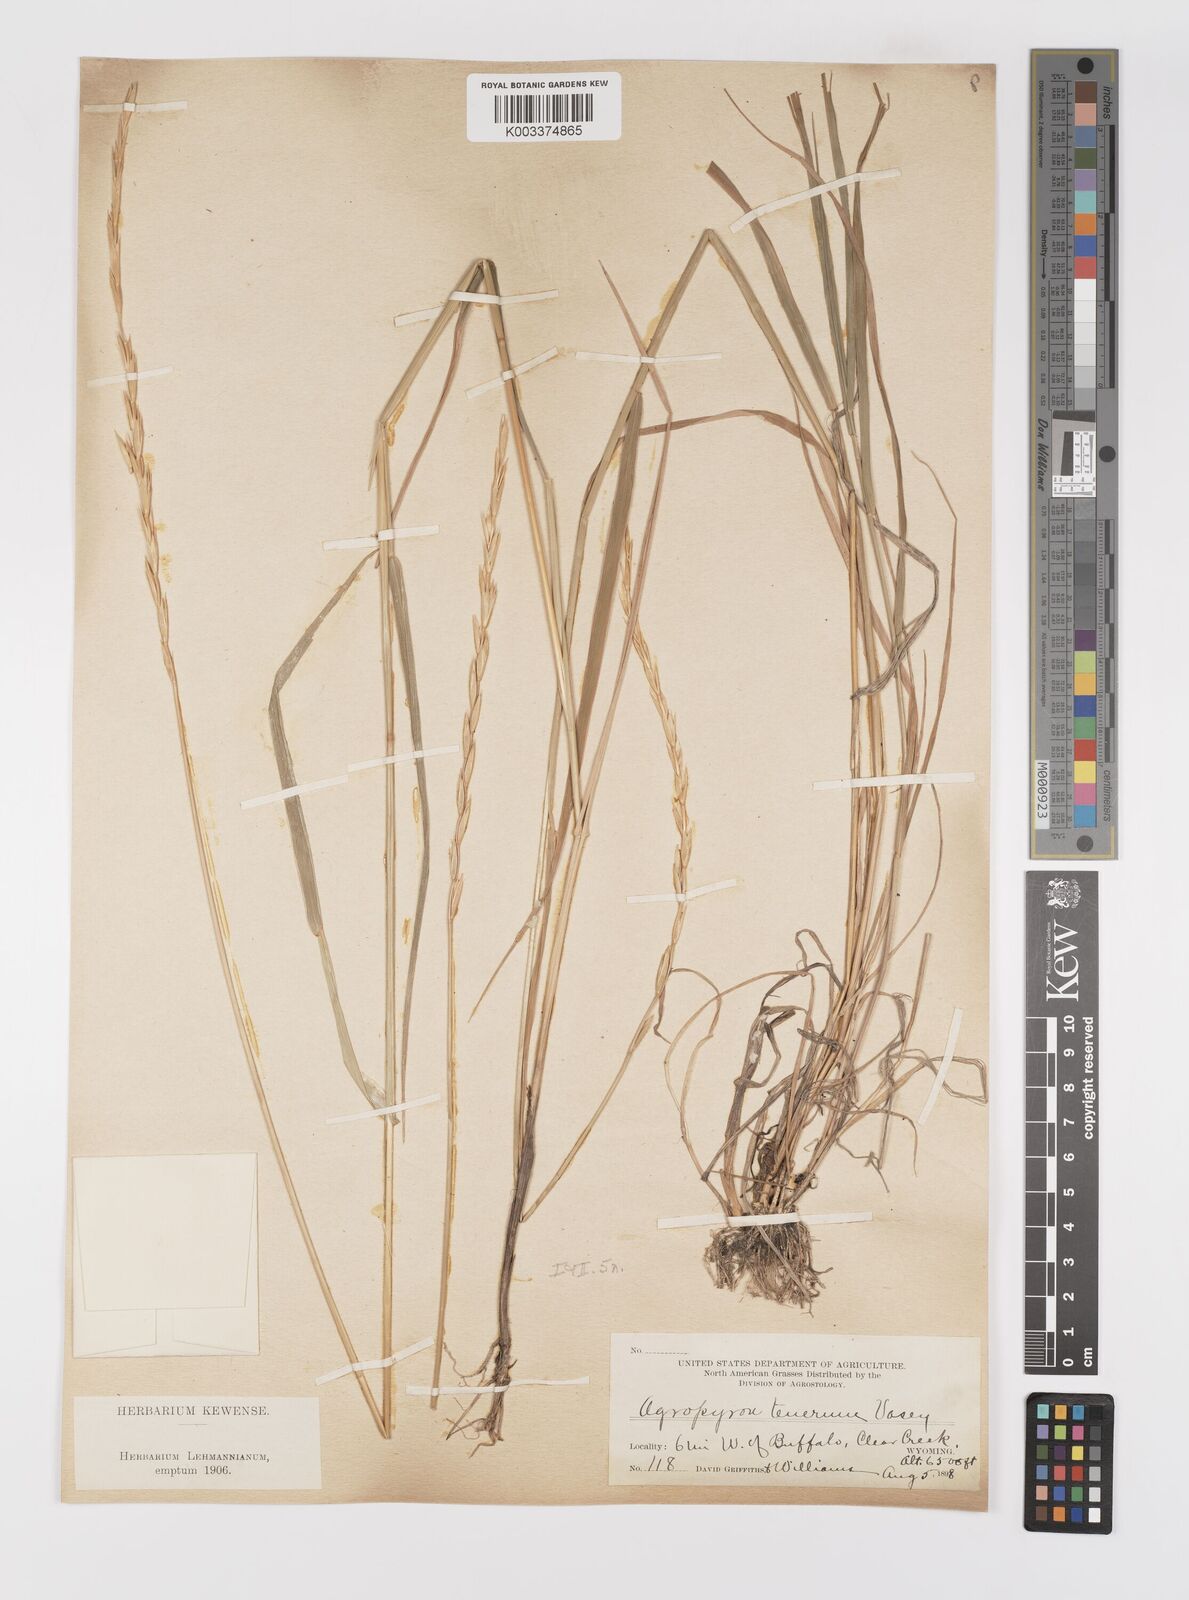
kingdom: Plantae
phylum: Tracheophyta
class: Liliopsida
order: Poales
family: Poaceae
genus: Elymus
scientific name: Elymus violaceus
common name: Arctic wheatgrass
